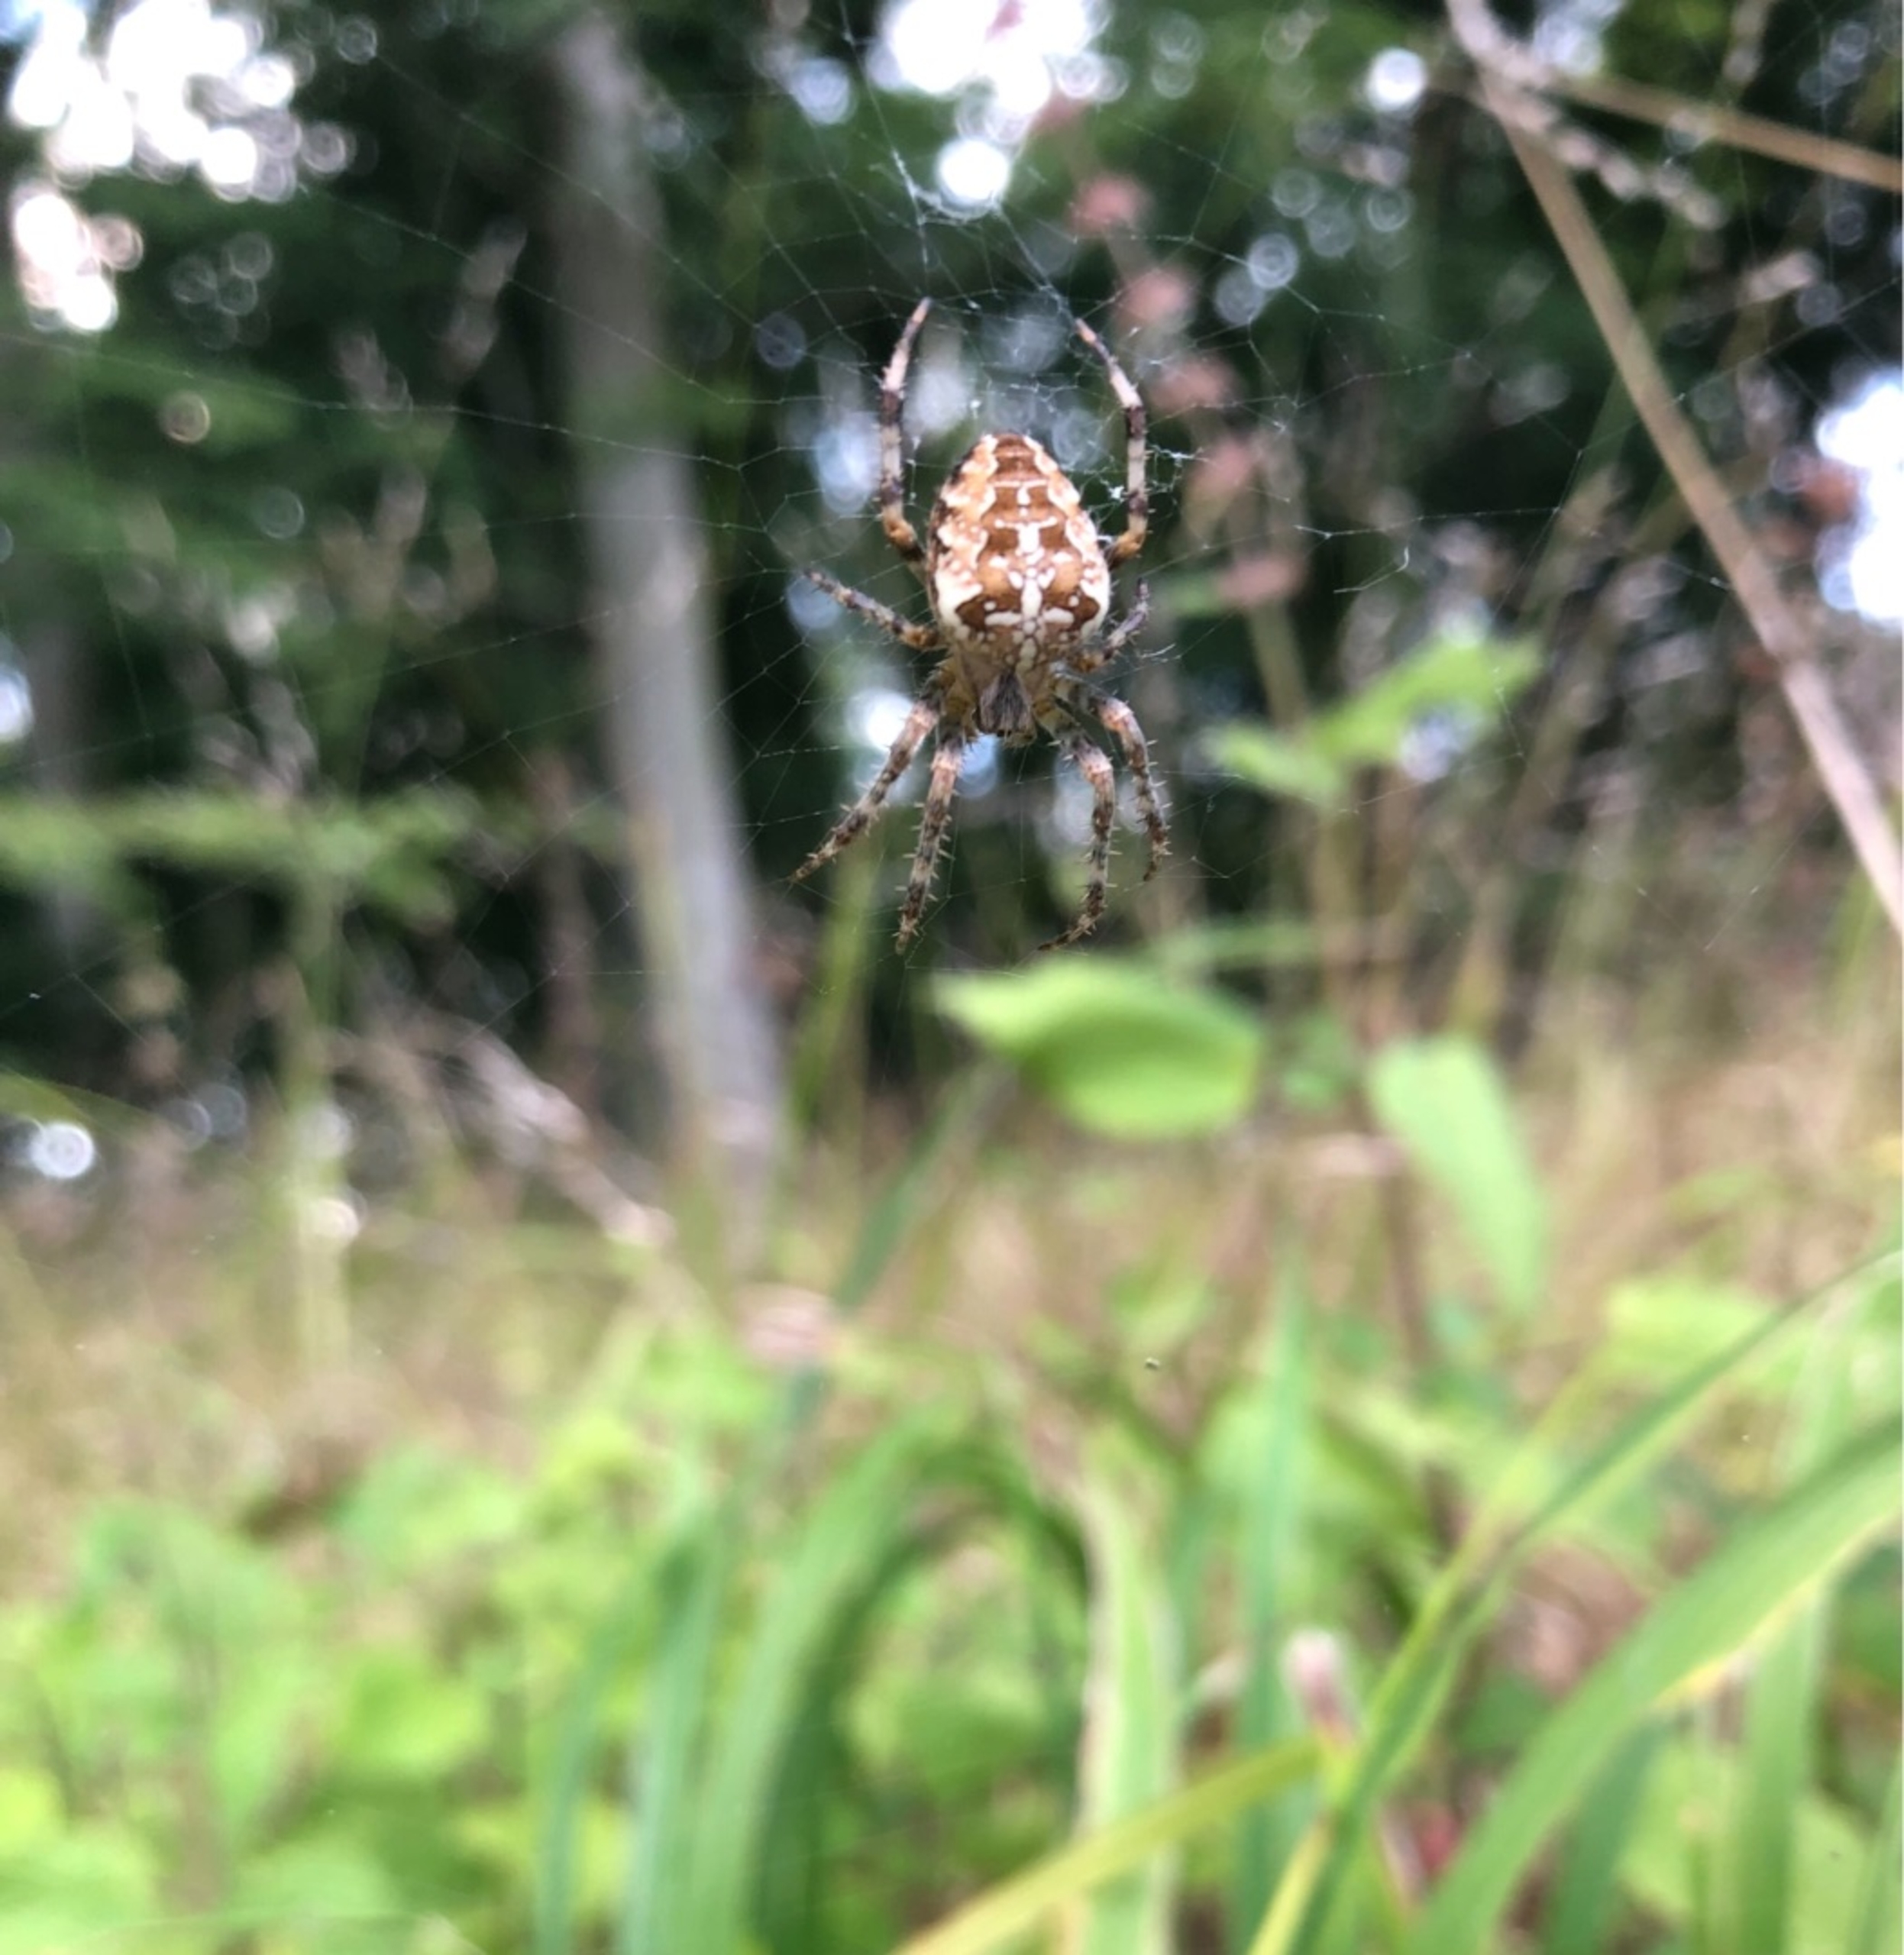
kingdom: Animalia
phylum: Arthropoda
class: Arachnida
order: Araneae
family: Araneidae
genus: Araneus
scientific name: Araneus diadematus
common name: Korsedderkop
